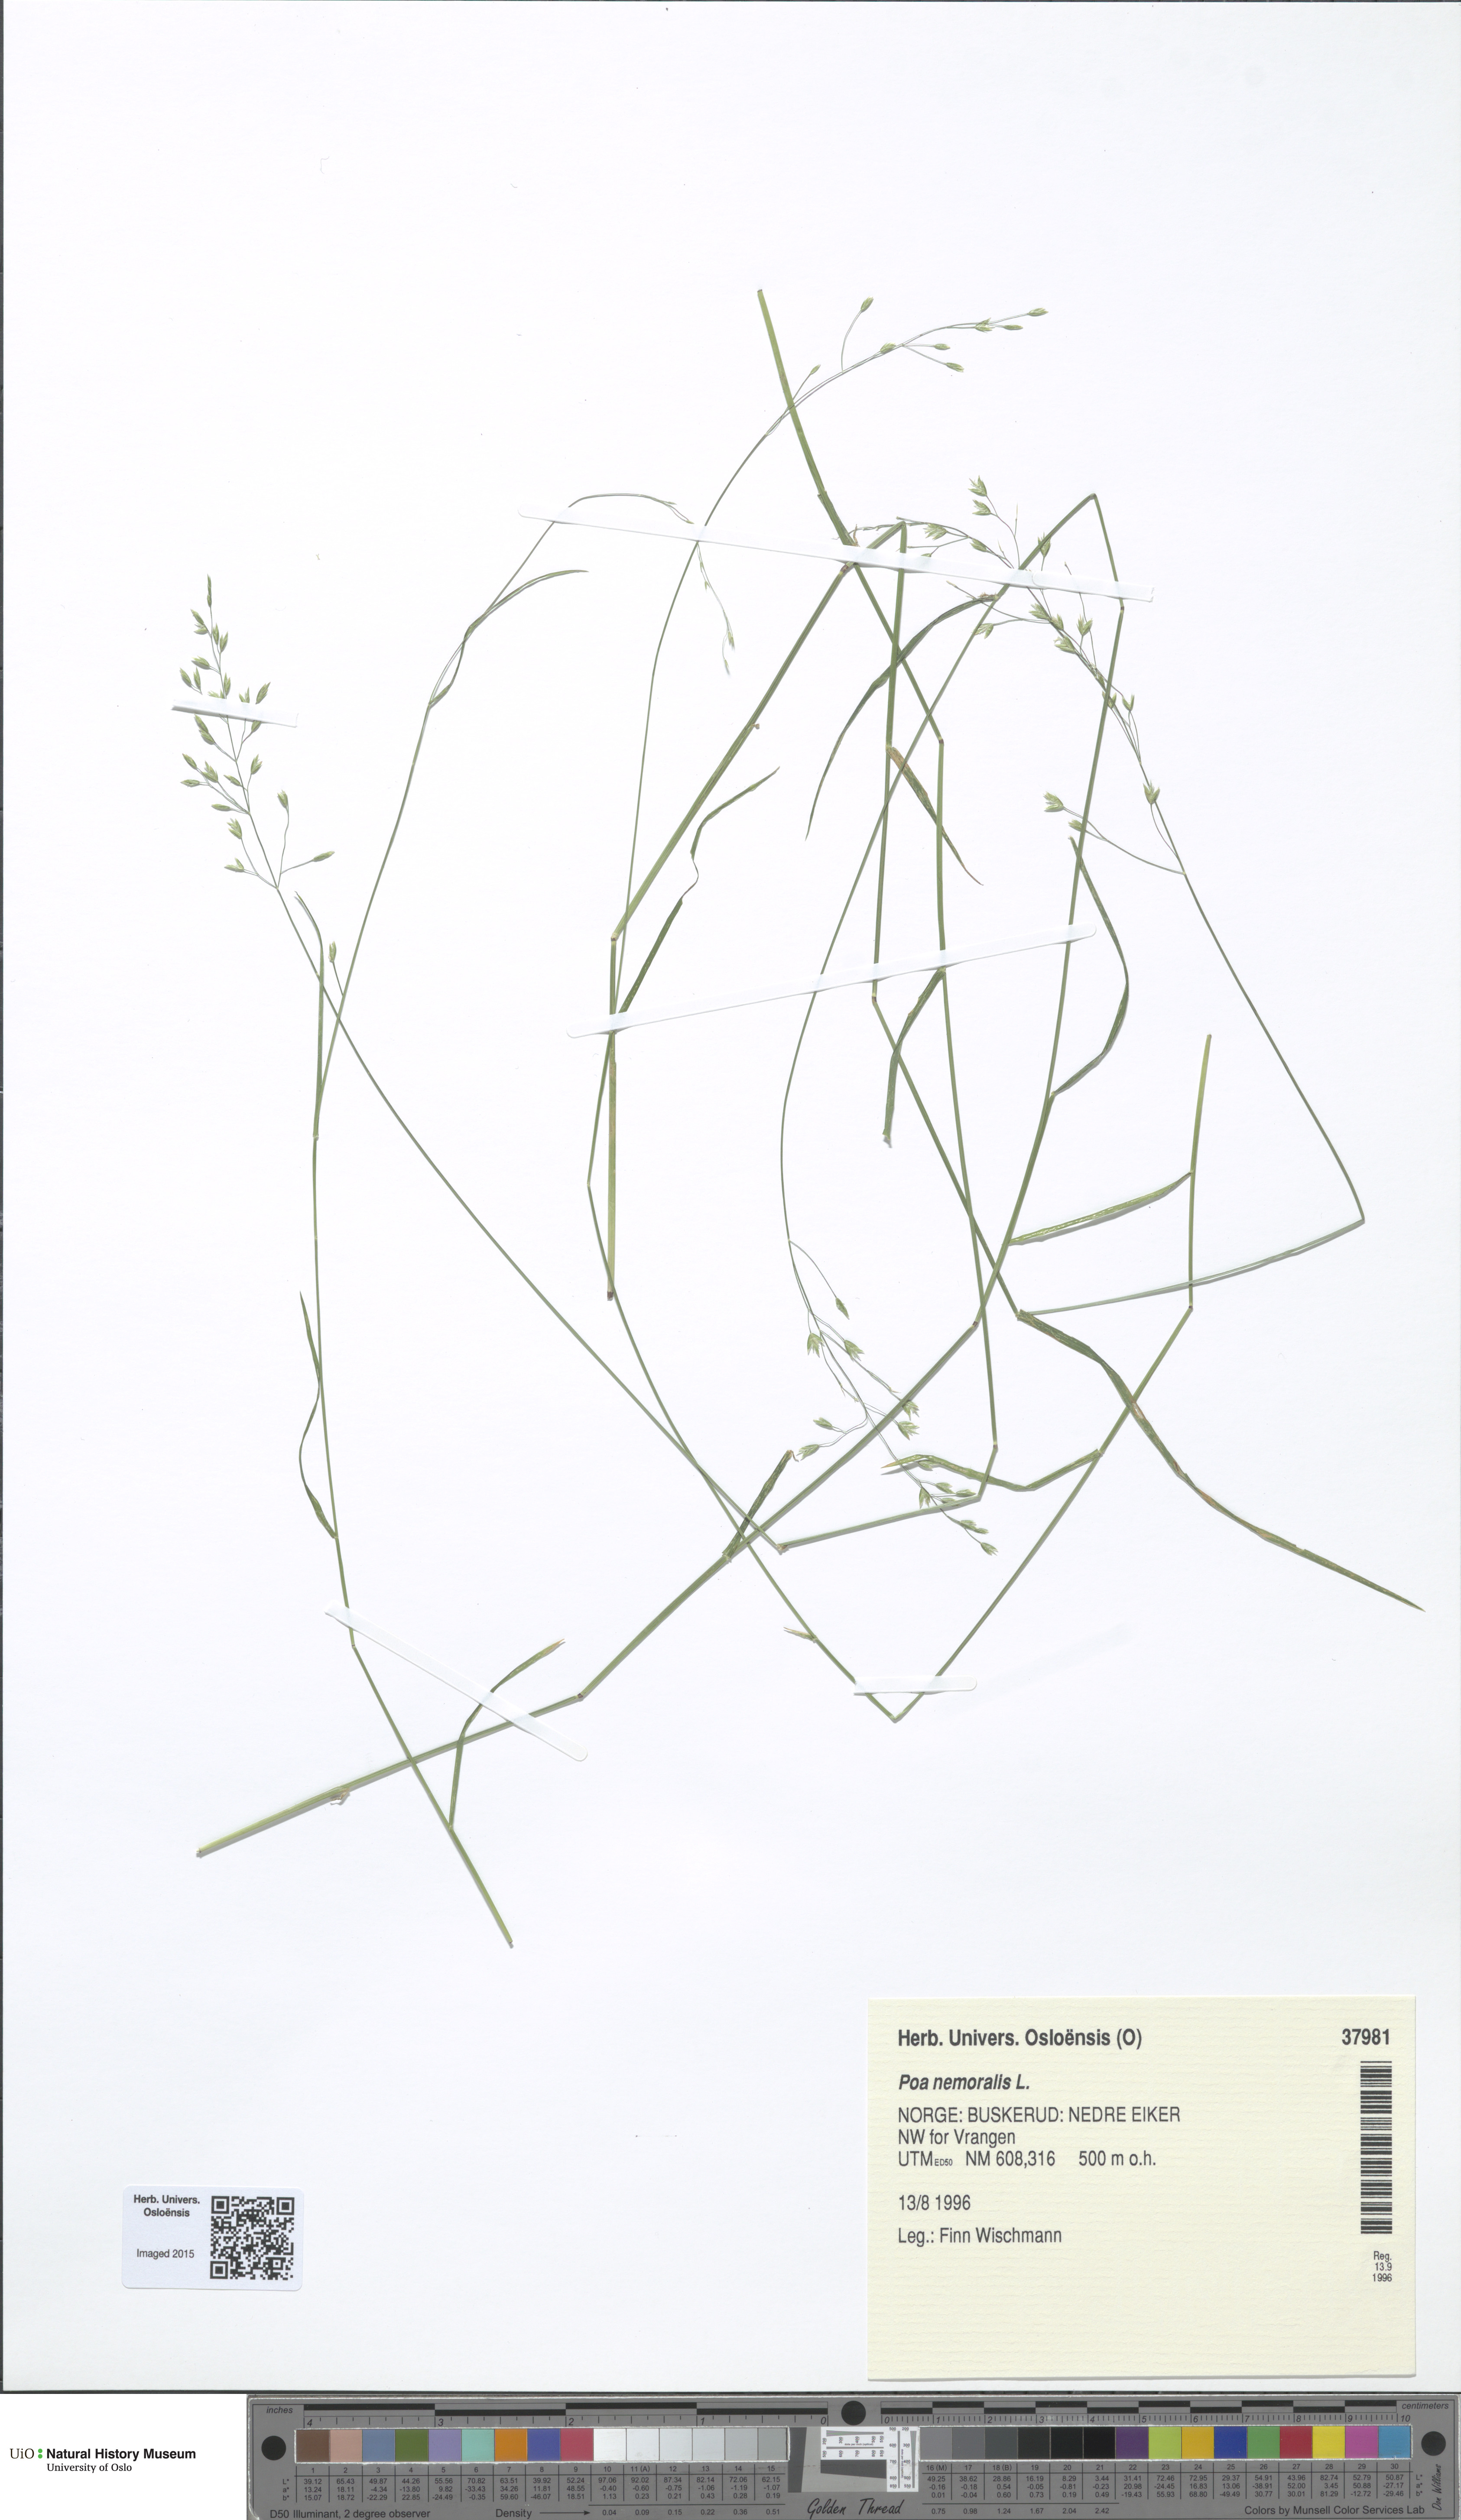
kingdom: Plantae
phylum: Tracheophyta
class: Liliopsida
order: Poales
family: Poaceae
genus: Poa
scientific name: Poa nemoralis
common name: Wood bluegrass
